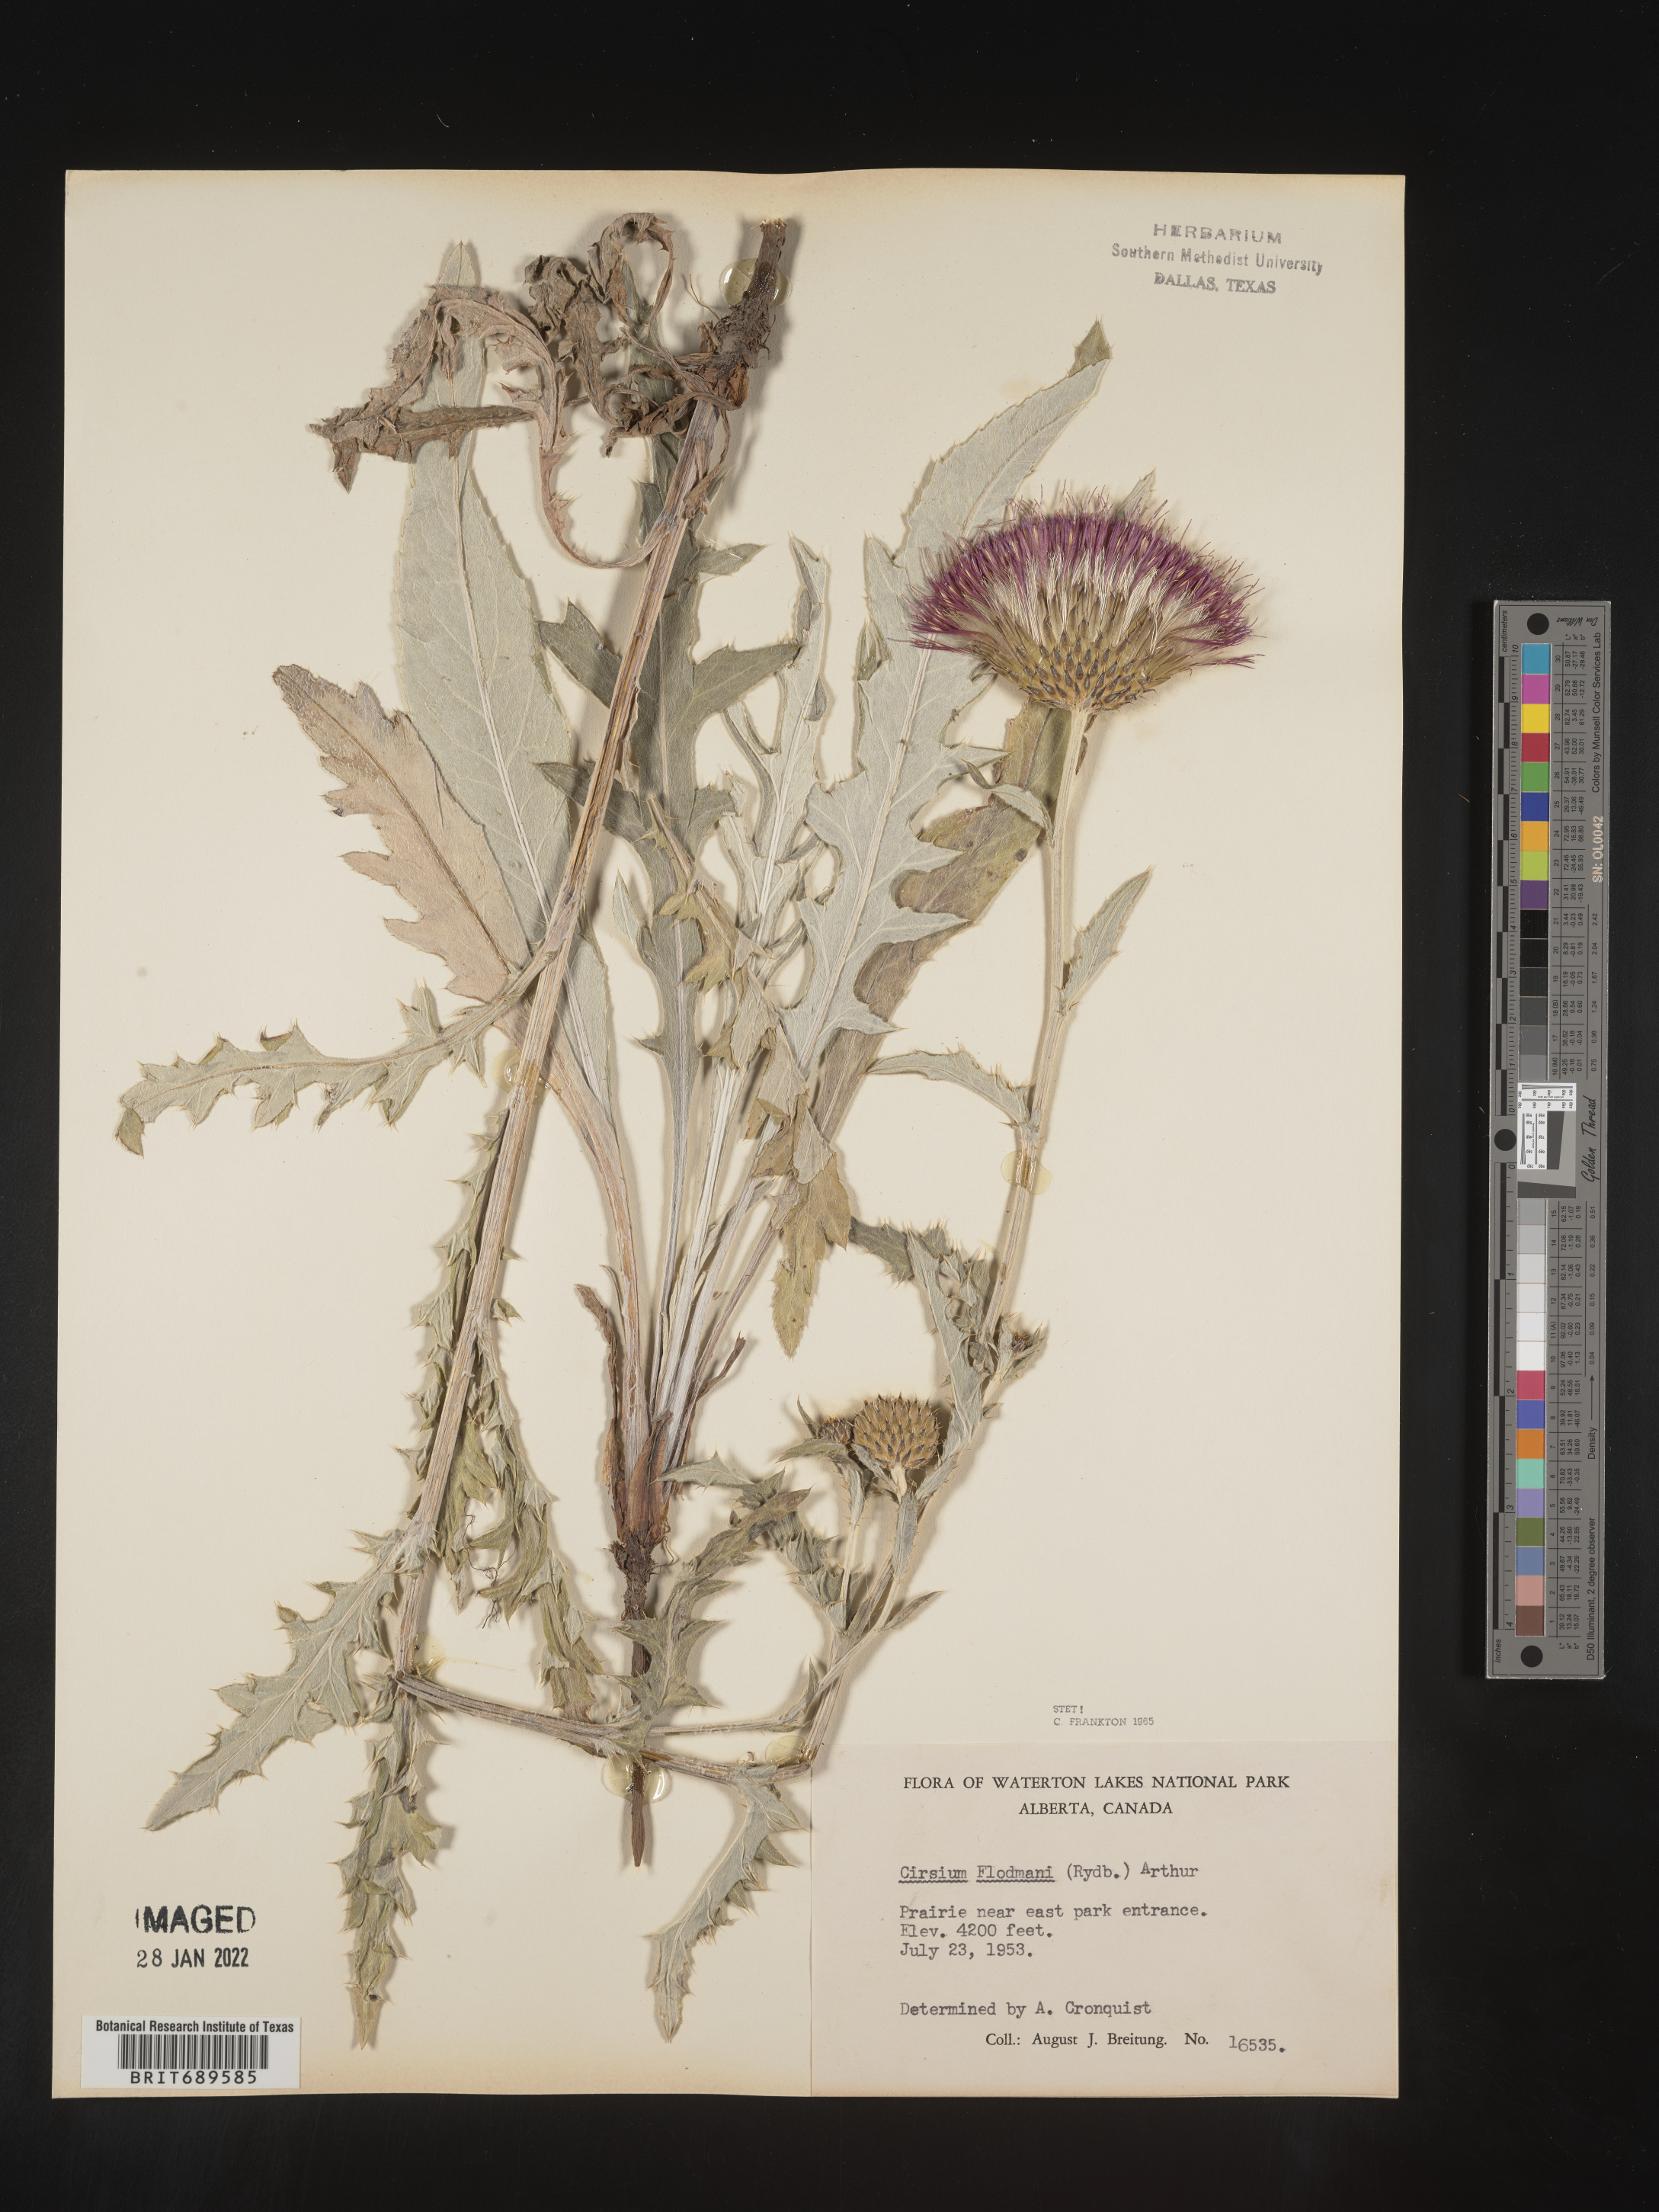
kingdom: Plantae
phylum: Tracheophyta
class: Magnoliopsida
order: Asterales
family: Asteraceae
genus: Cirsium
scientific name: Cirsium flodmanii
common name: Flodman's thistle
